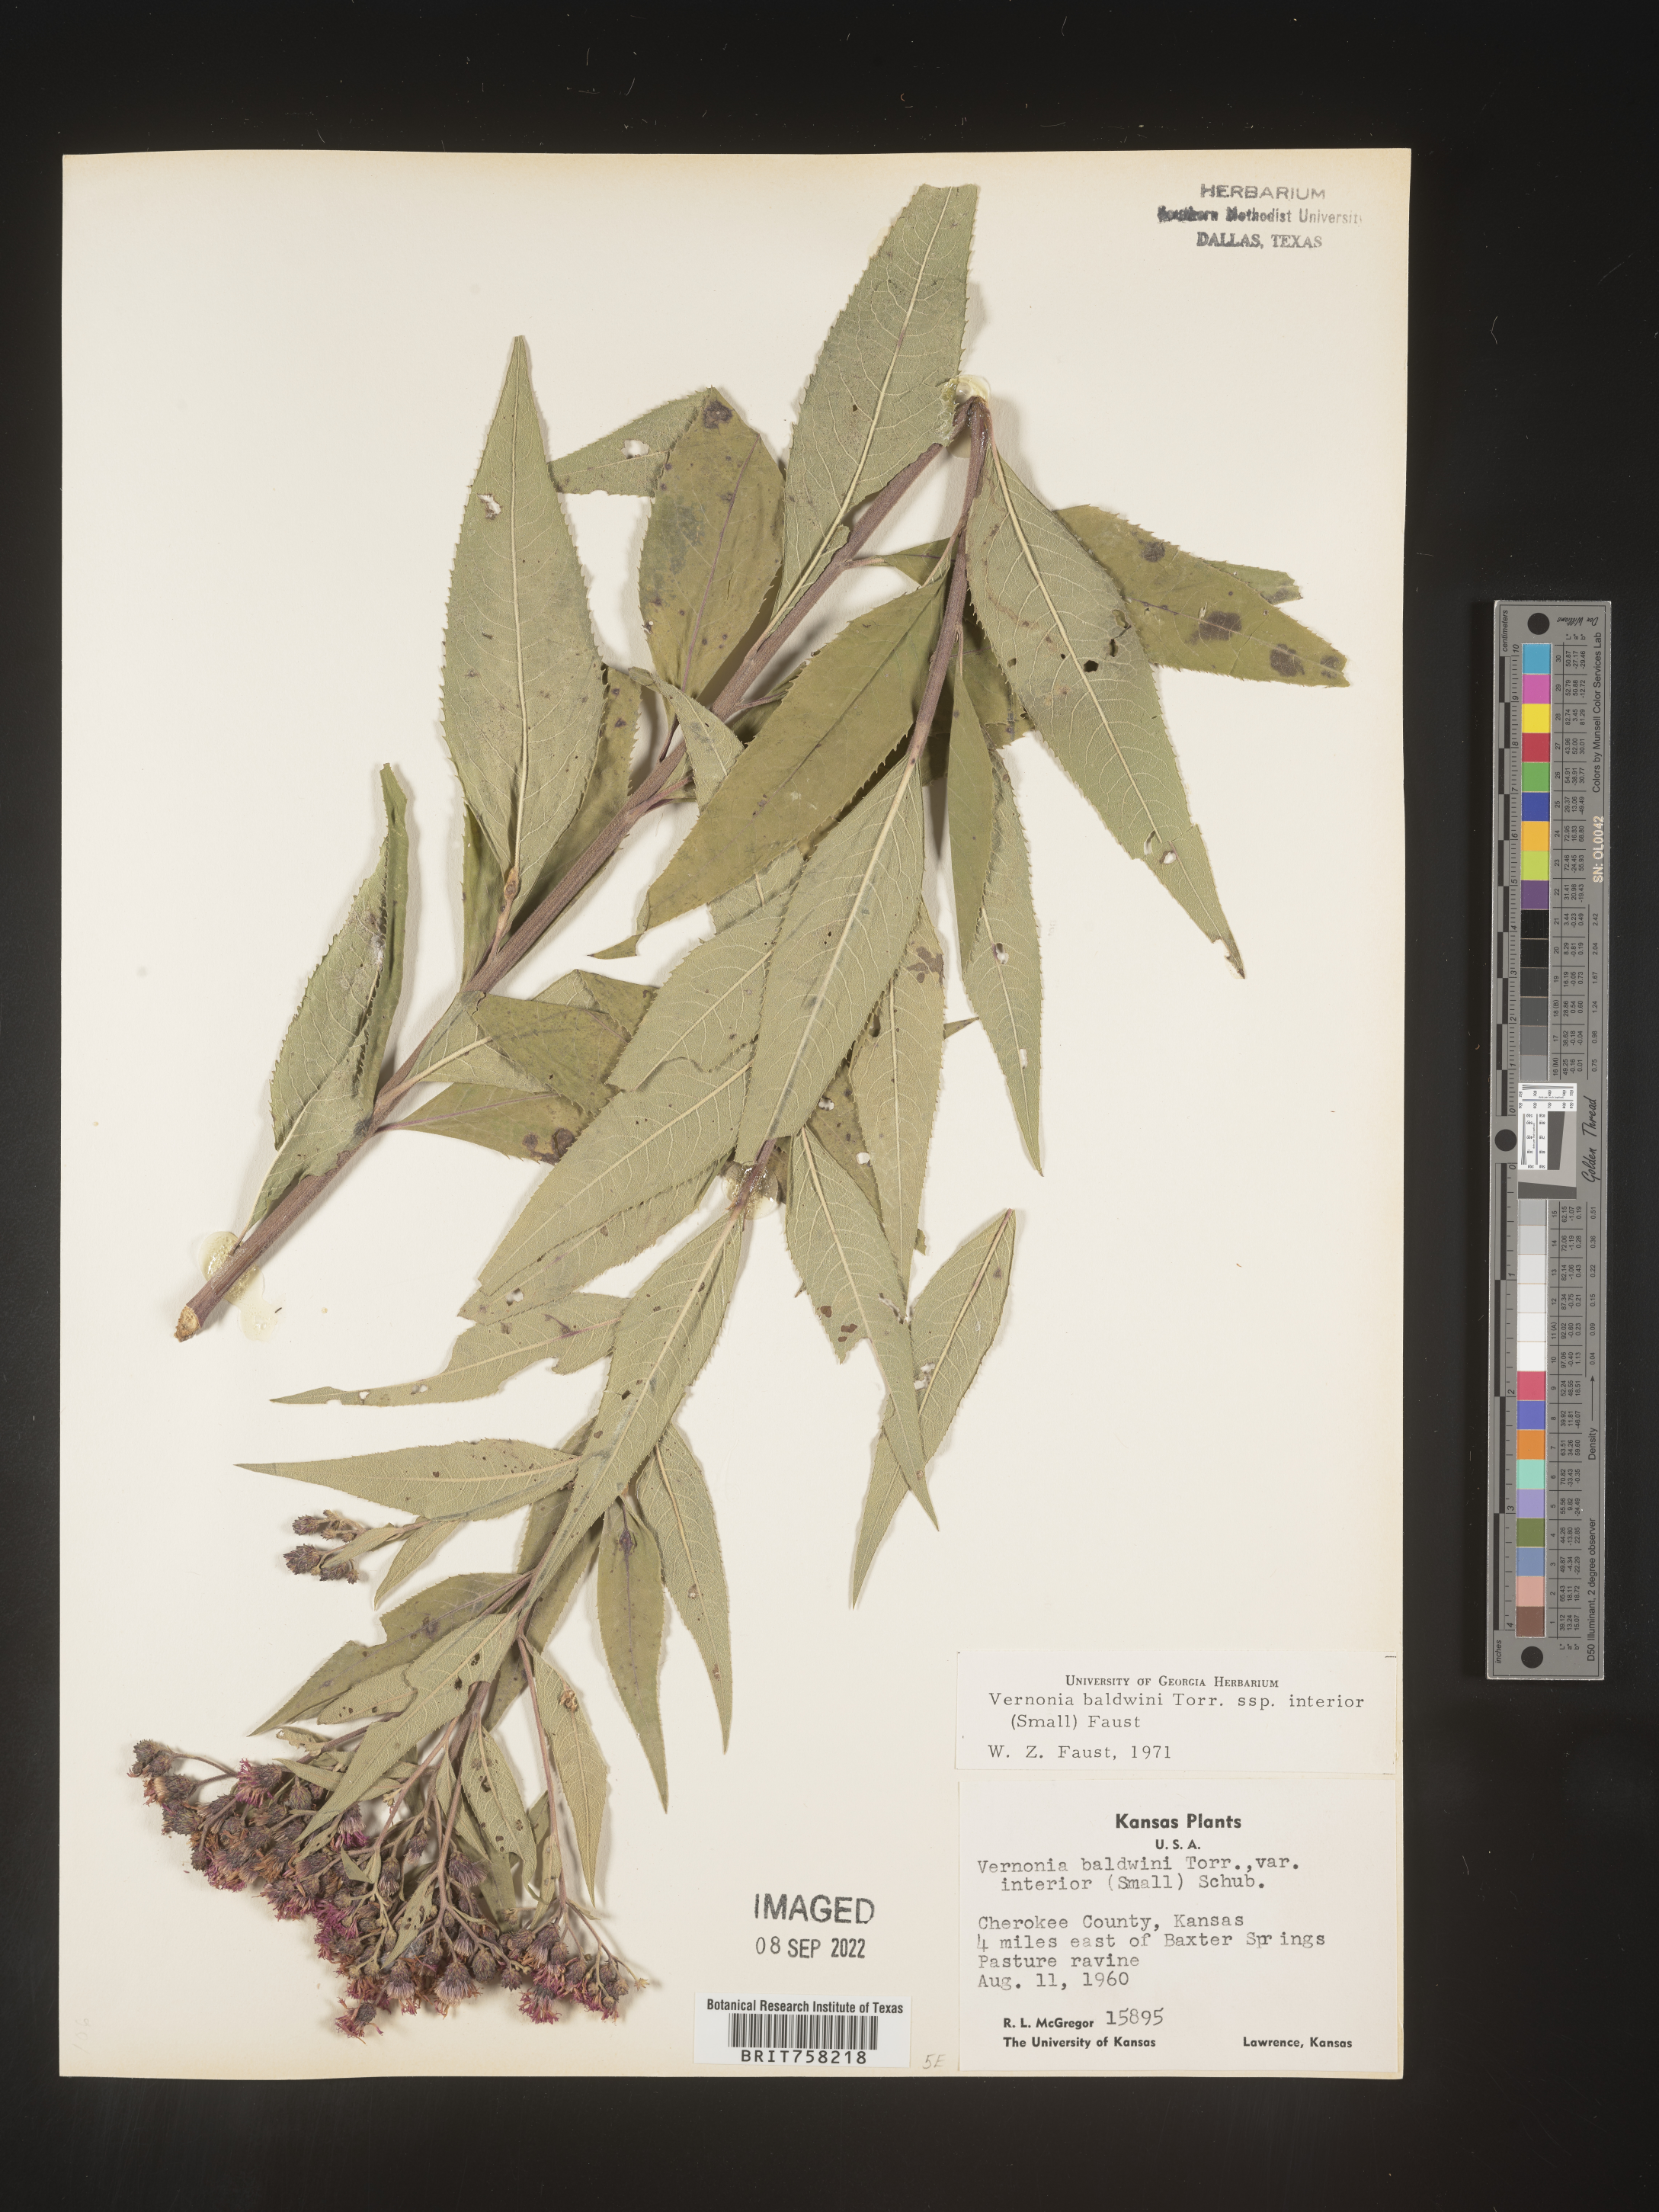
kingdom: Plantae
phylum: Tracheophyta
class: Magnoliopsida
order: Asterales
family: Asteraceae
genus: Vernonia
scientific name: Vernonia baldwinii
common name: Western ironweed
